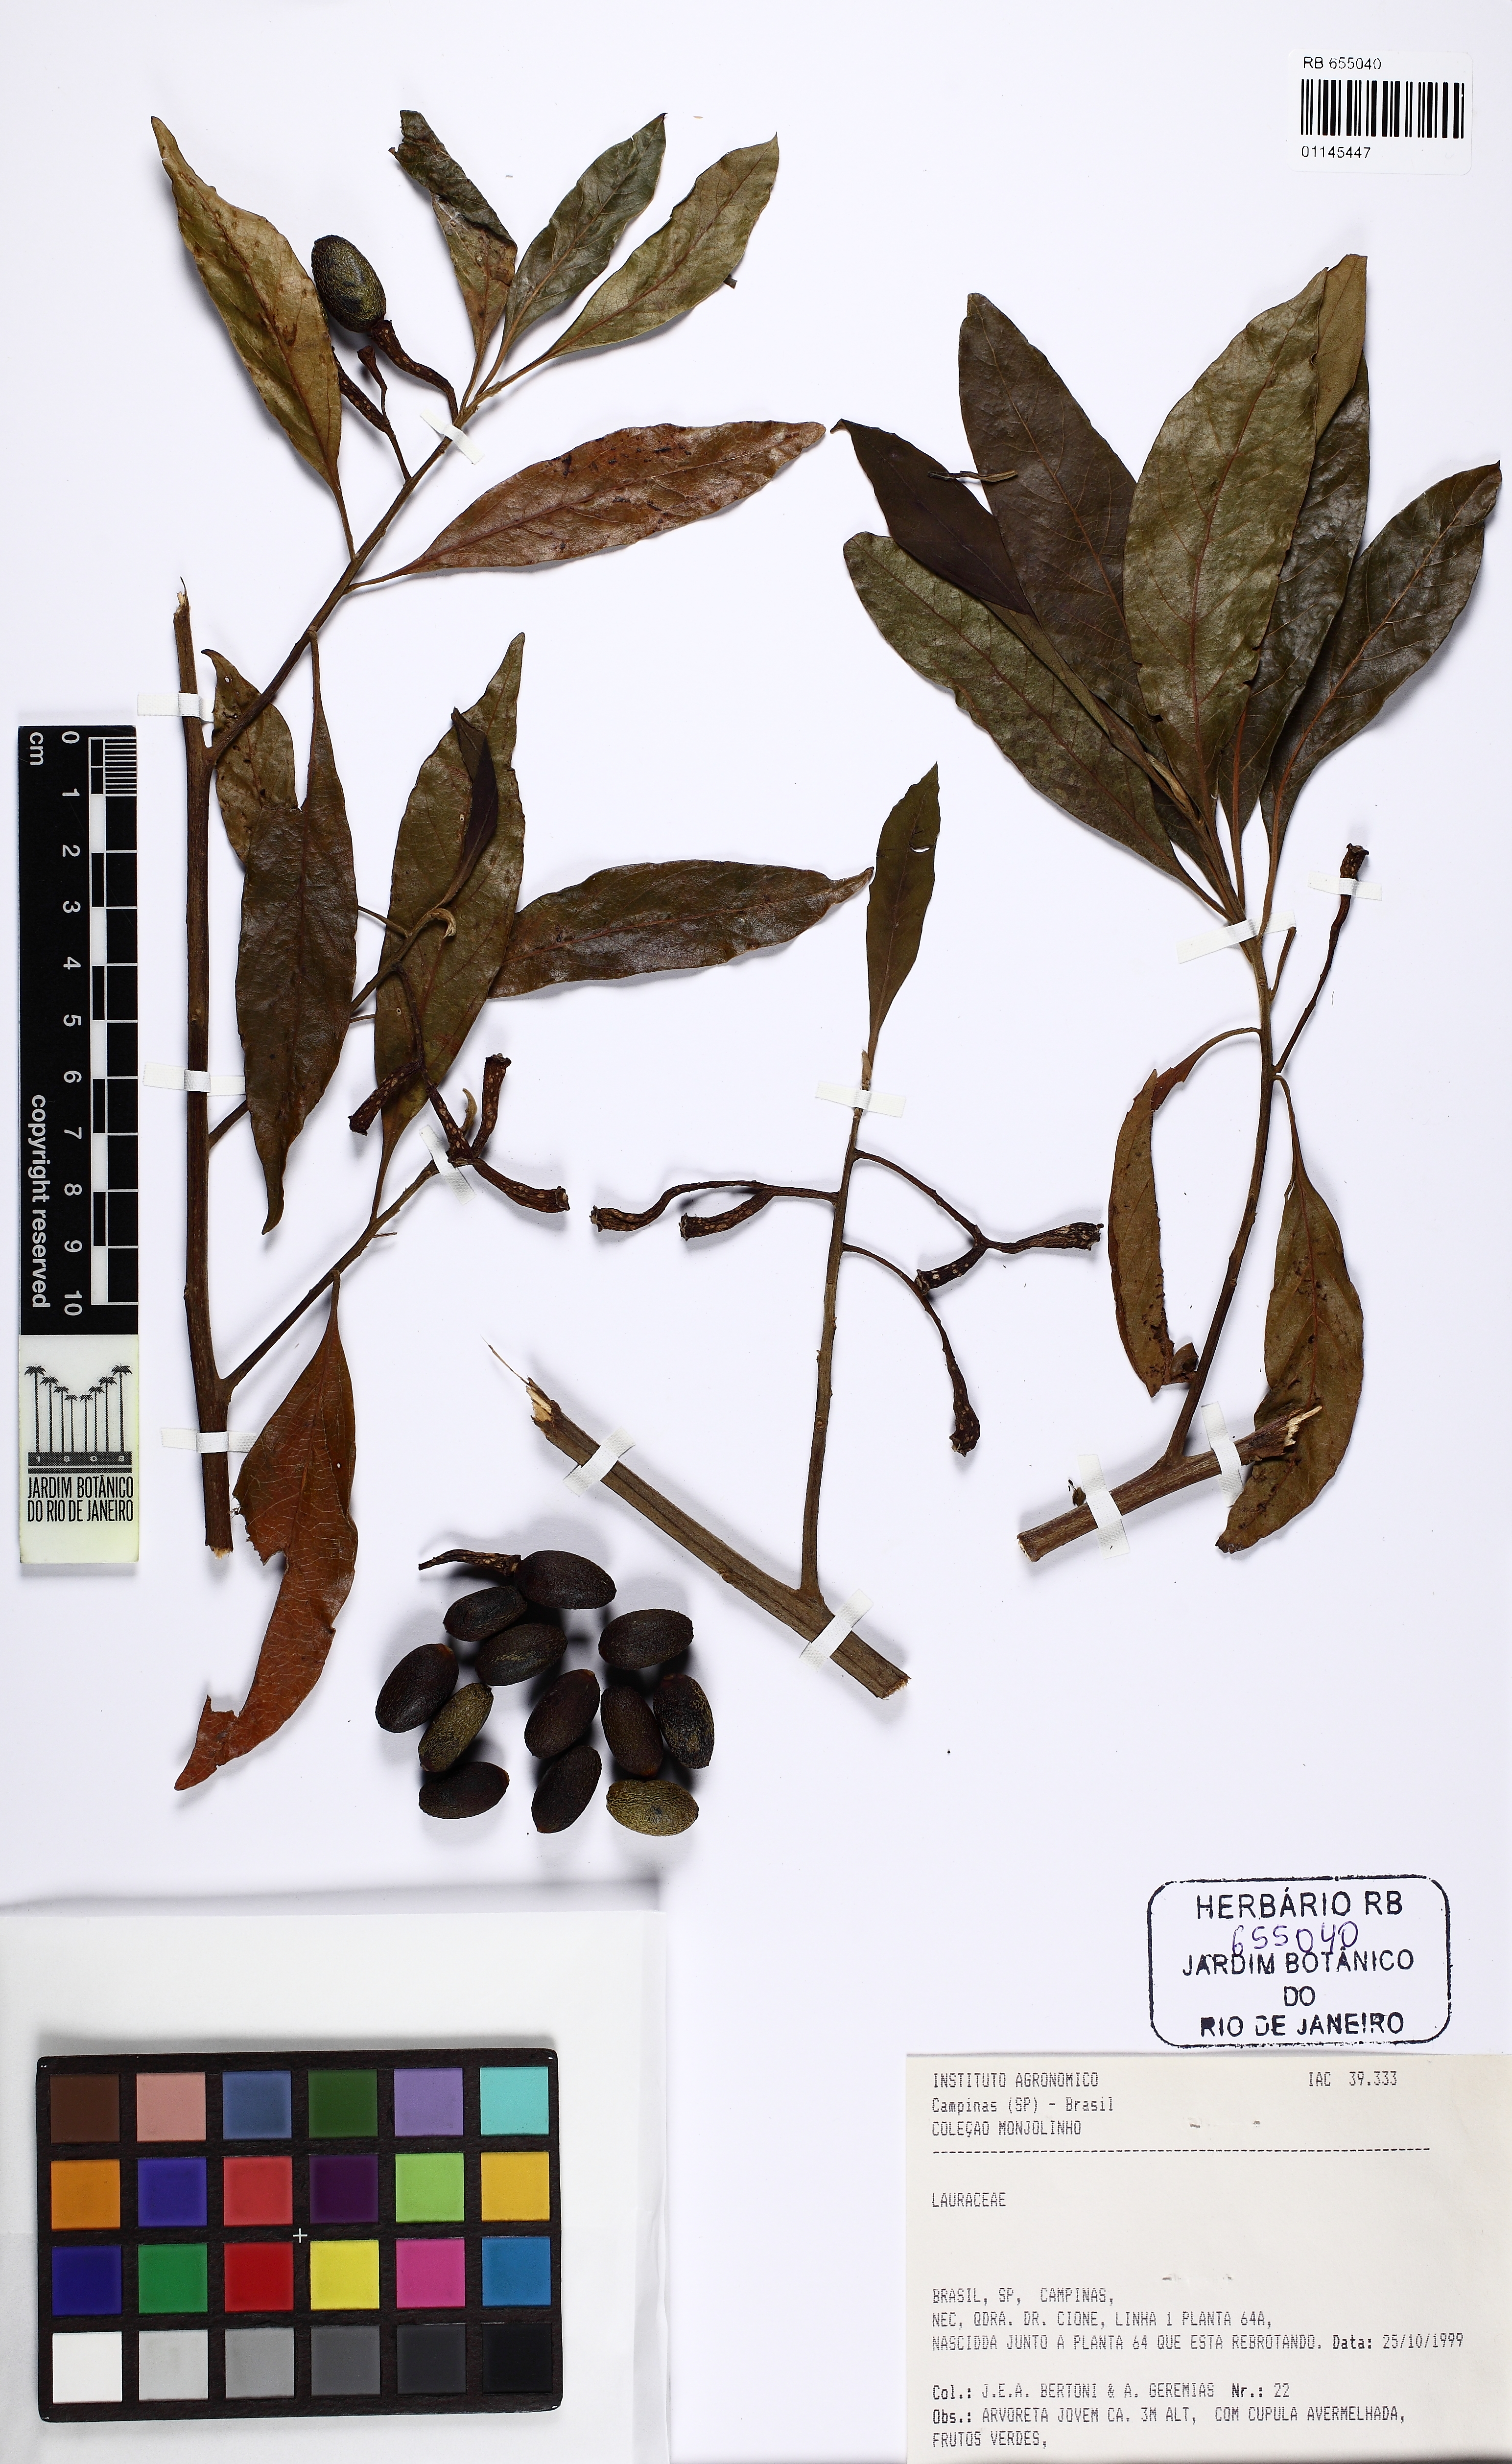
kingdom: Plantae
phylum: Tracheophyta
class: Magnoliopsida
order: Laurales
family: Lauraceae
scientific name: Lauraceae
